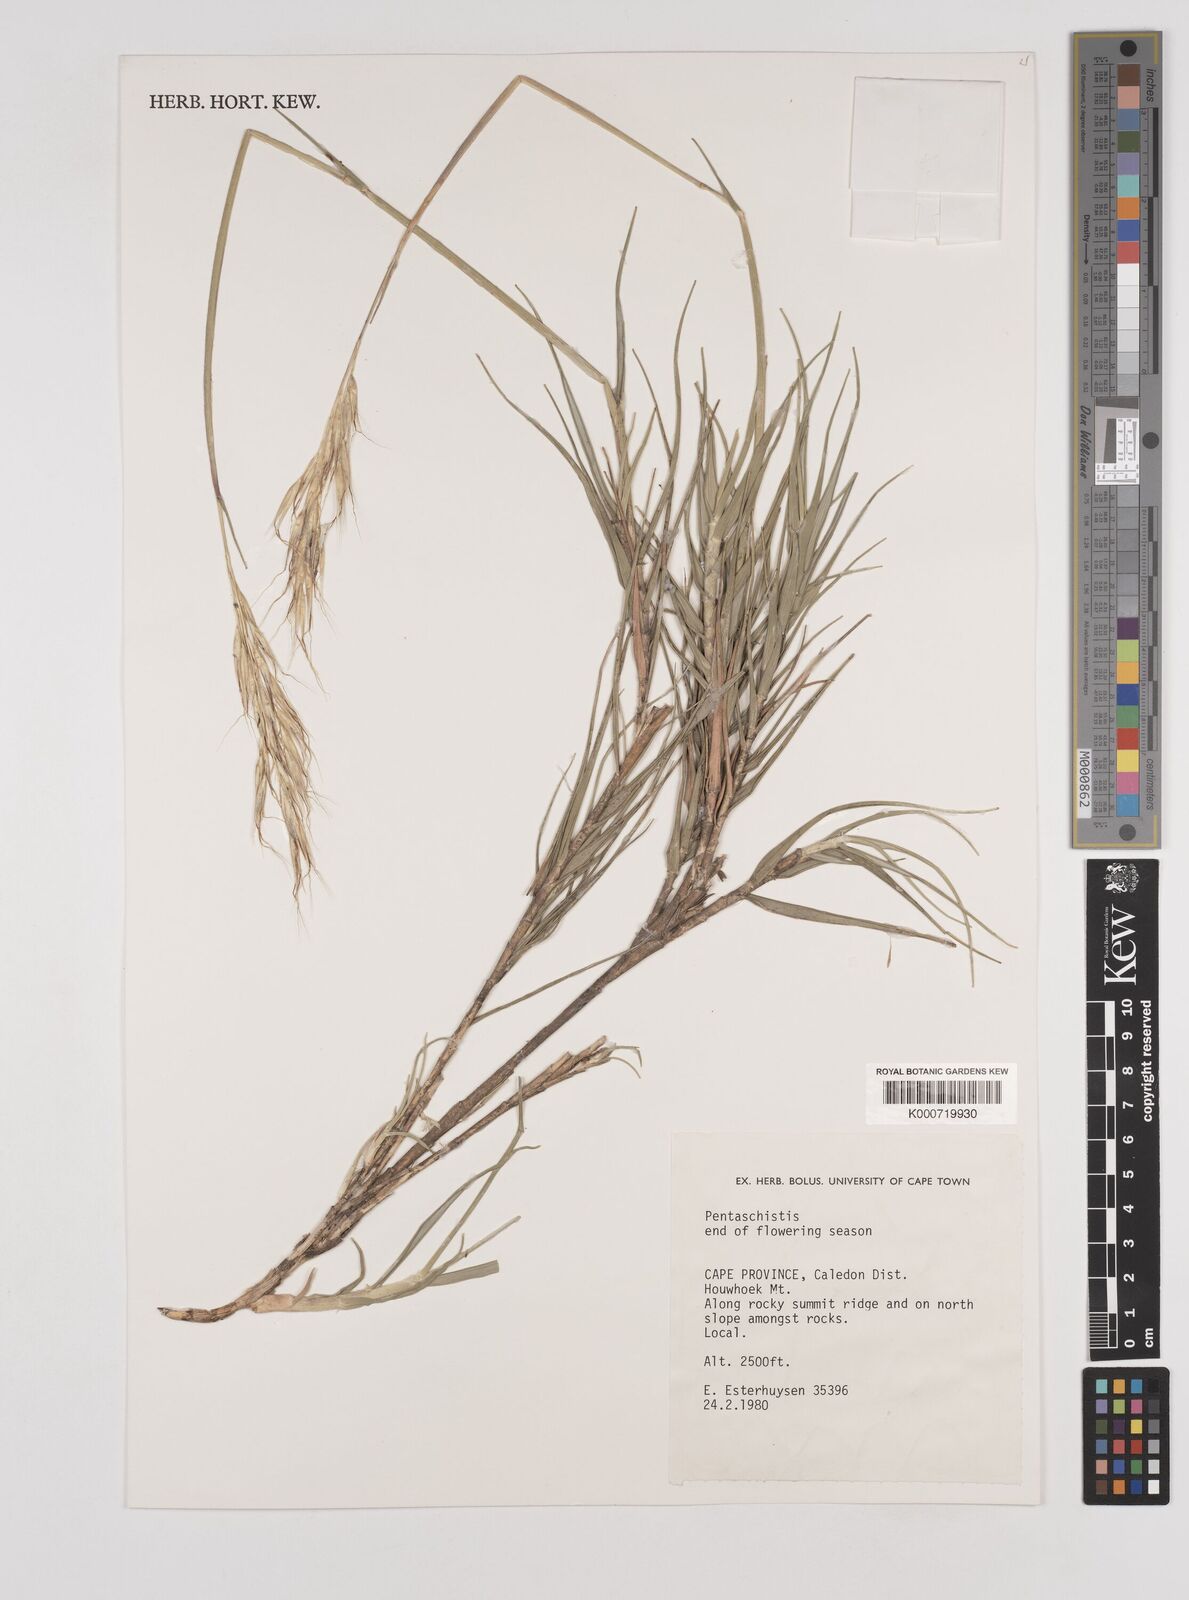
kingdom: Plantae
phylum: Tracheophyta
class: Liliopsida
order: Poales
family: Poaceae
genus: Pentameris
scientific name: Pentameris dregeana
